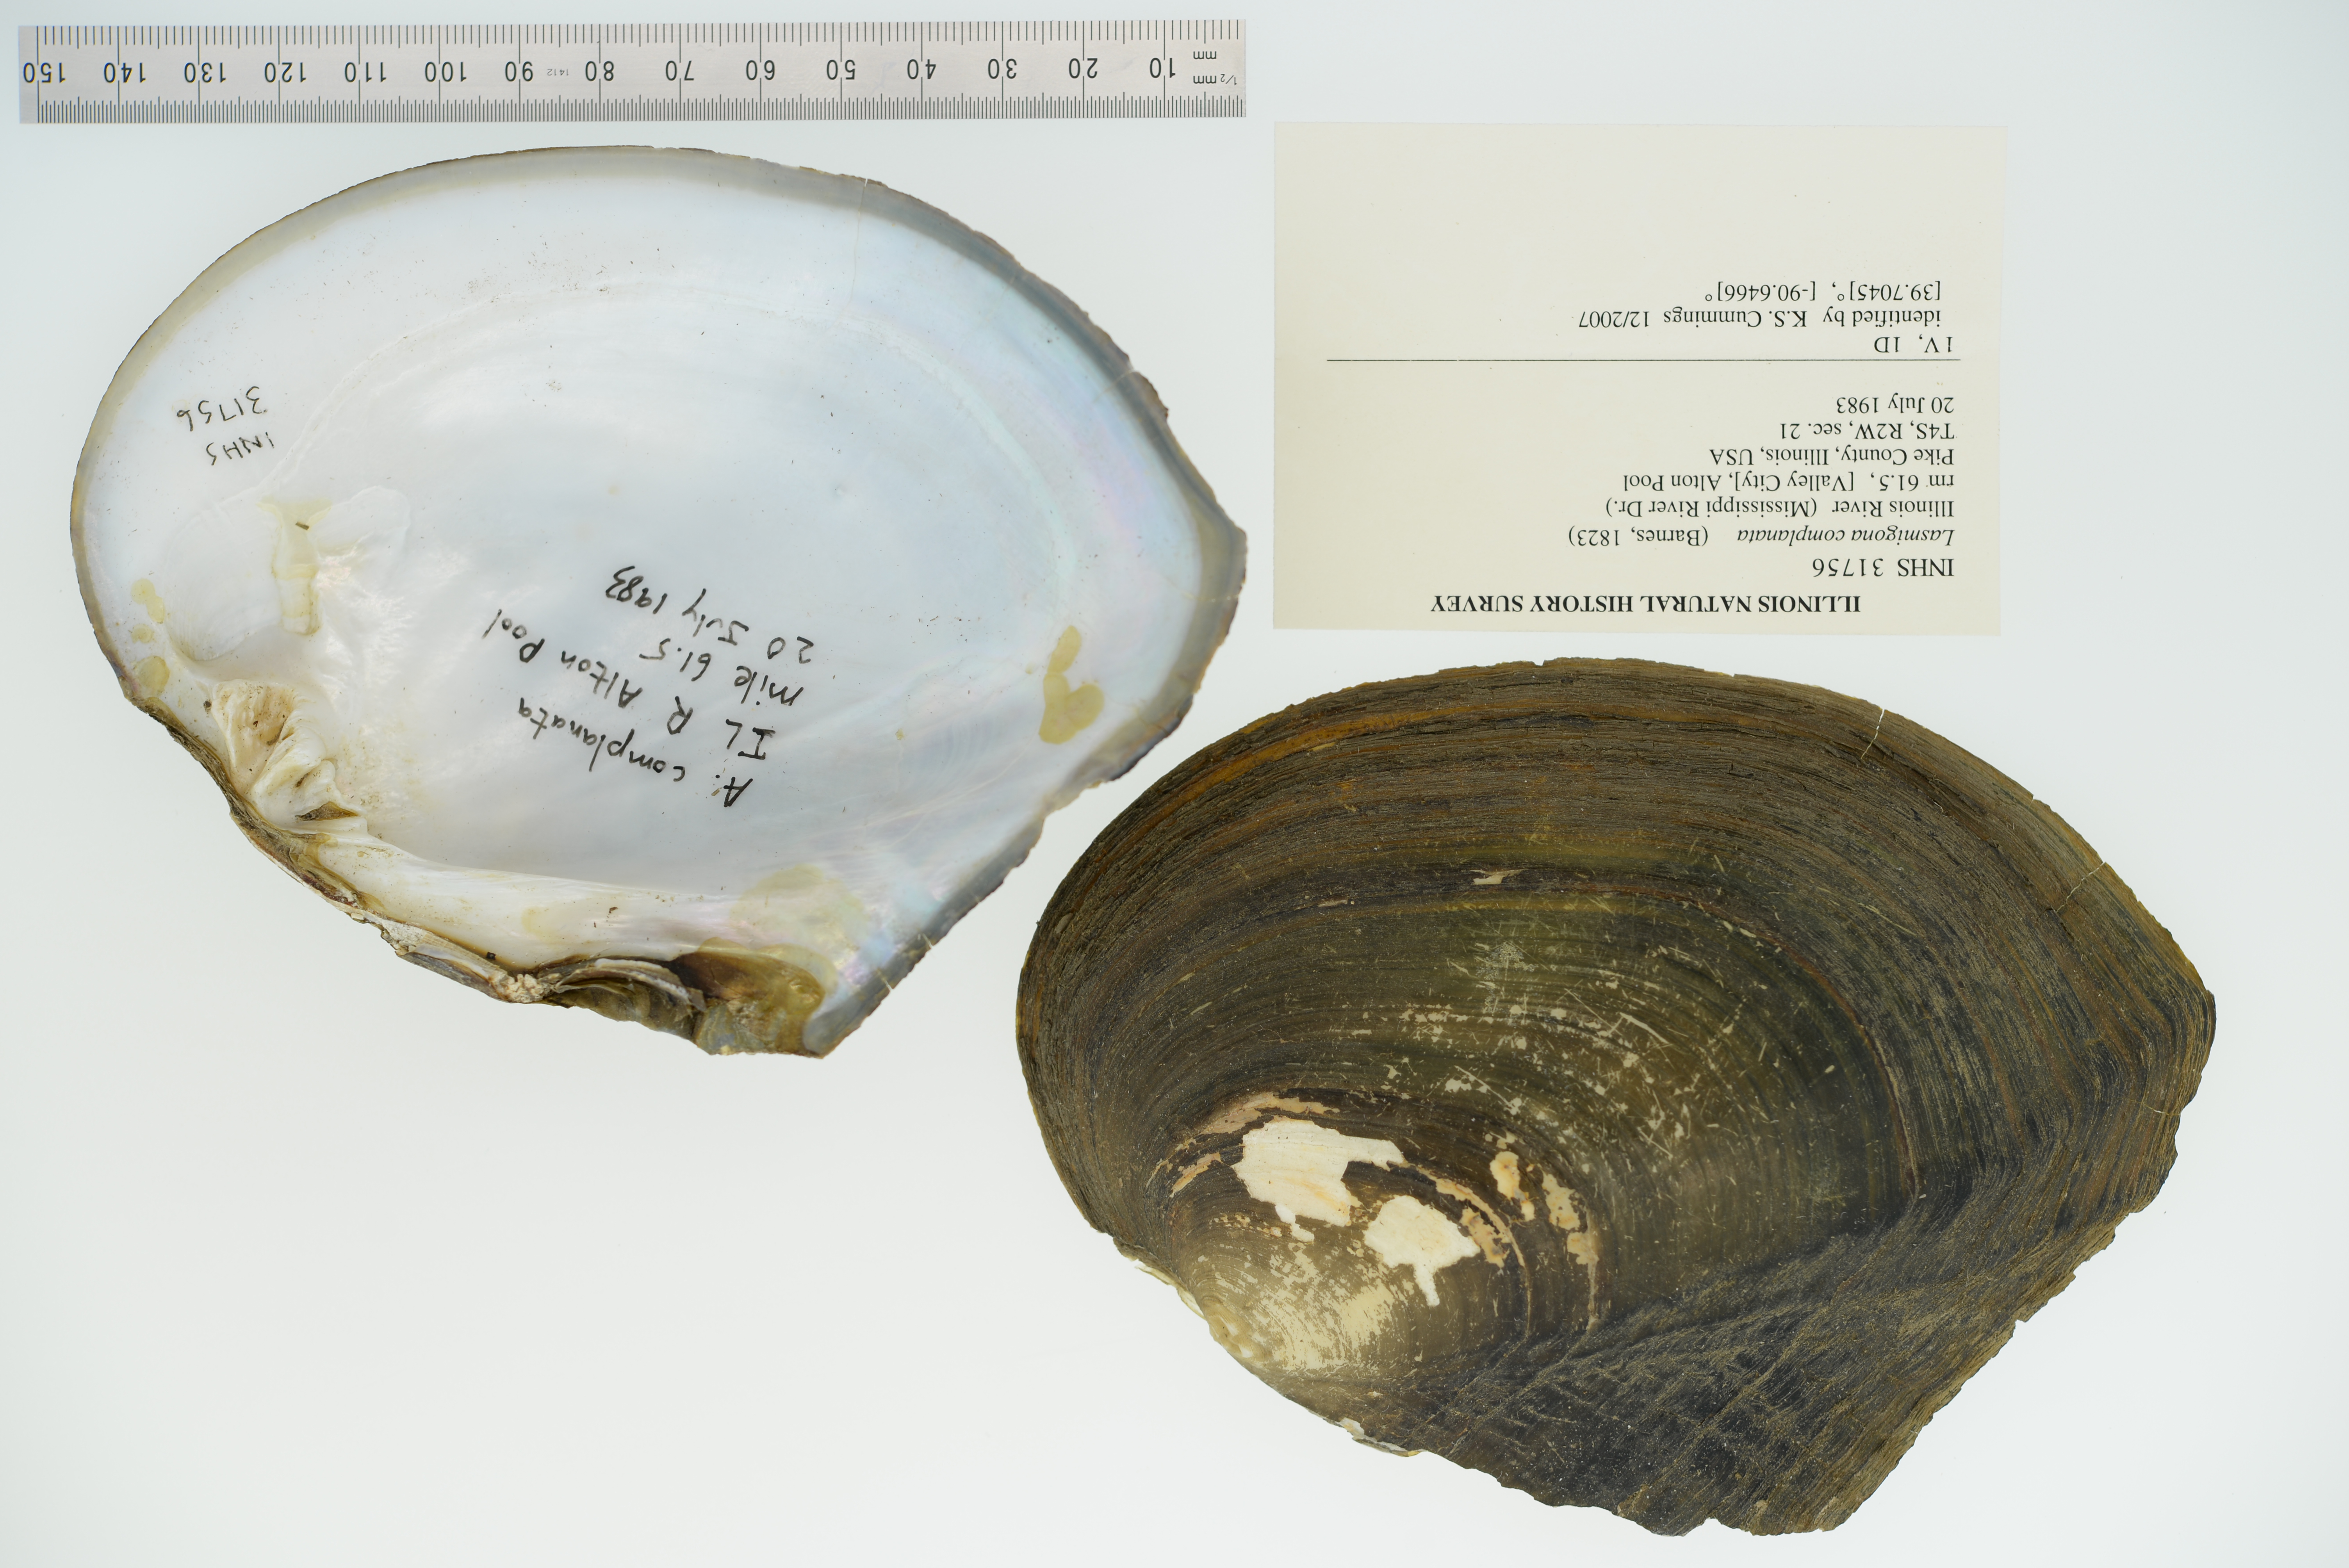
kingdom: Animalia
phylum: Mollusca
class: Bivalvia
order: Unionida
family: Unionidae
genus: Lasmigona
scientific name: Lasmigona complanata
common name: White heelsplitter
